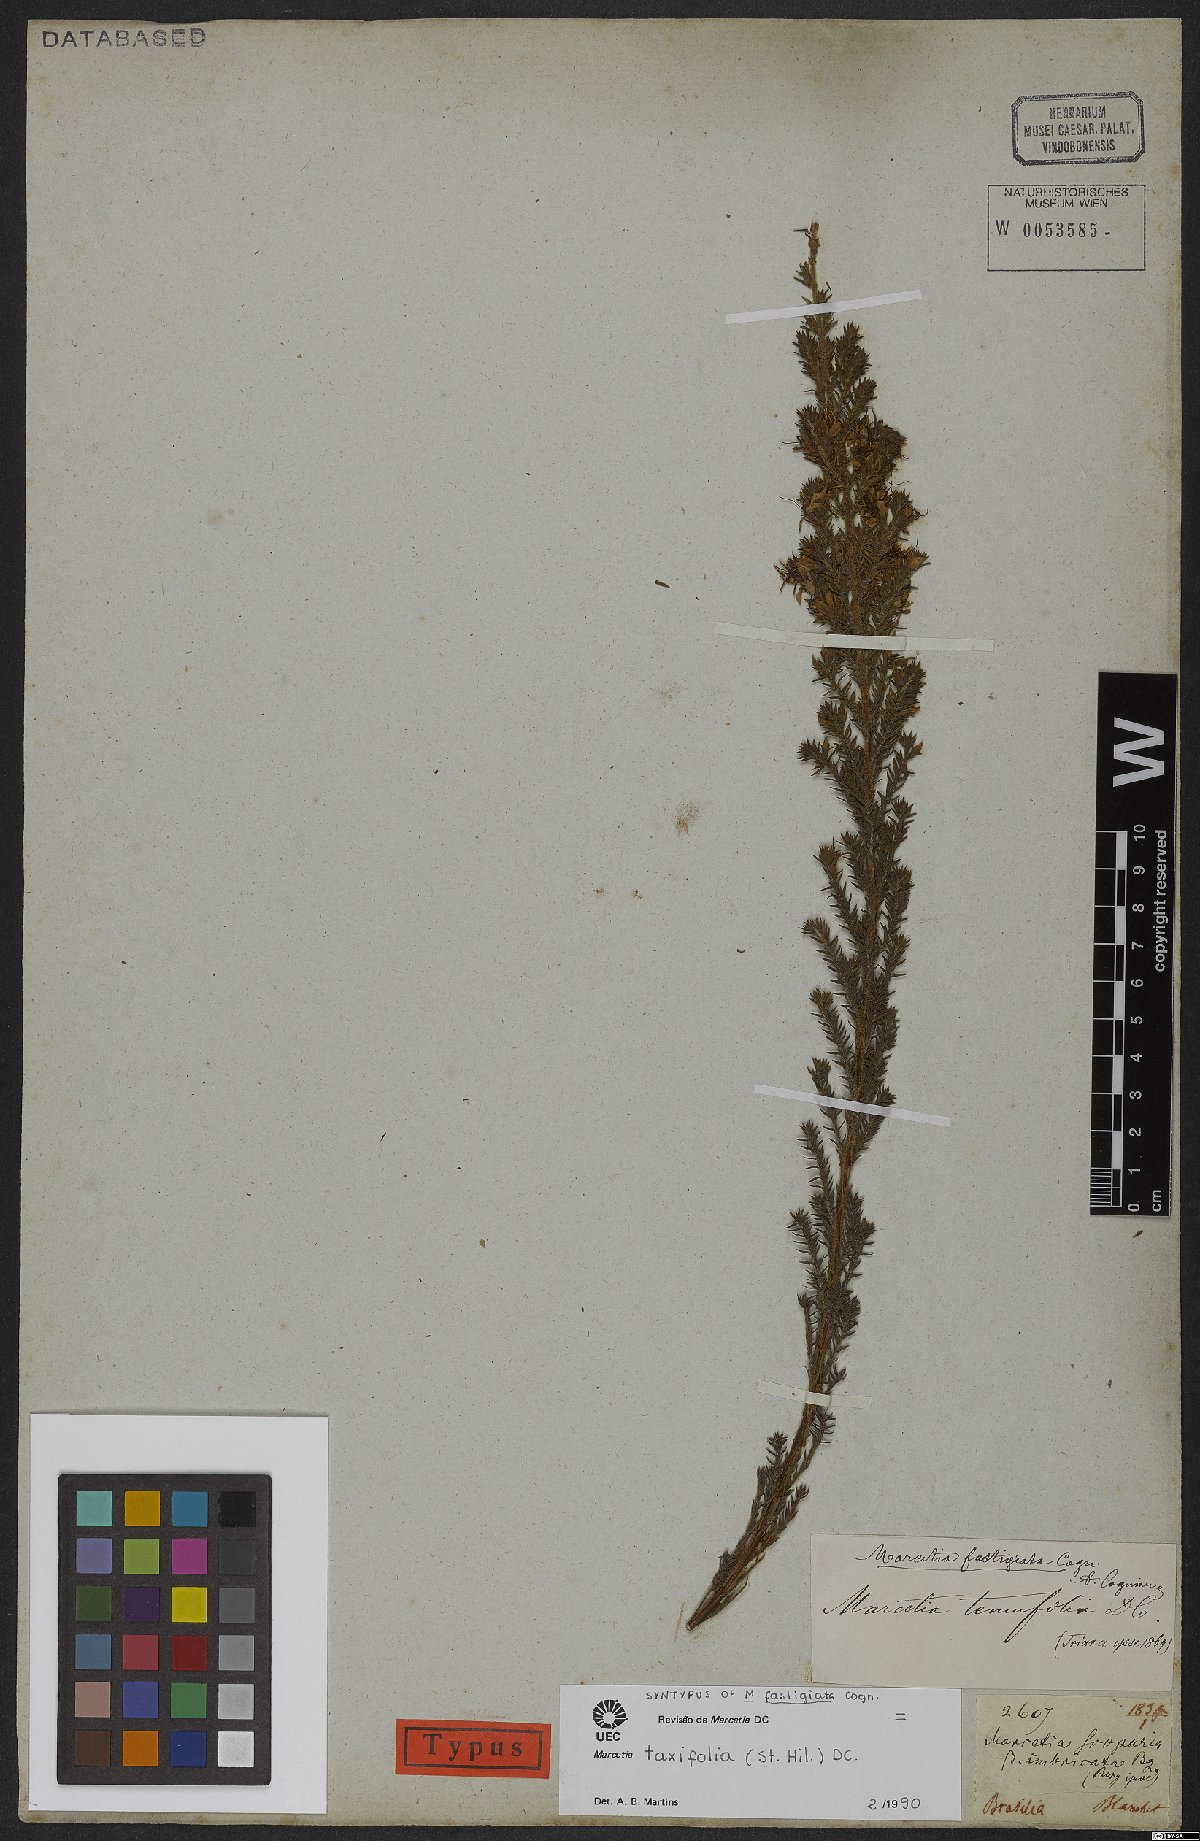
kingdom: Plantae
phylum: Tracheophyta
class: Magnoliopsida
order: Myrtales
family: Melastomataceae
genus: Marcetia
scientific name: Marcetia taxifolia
